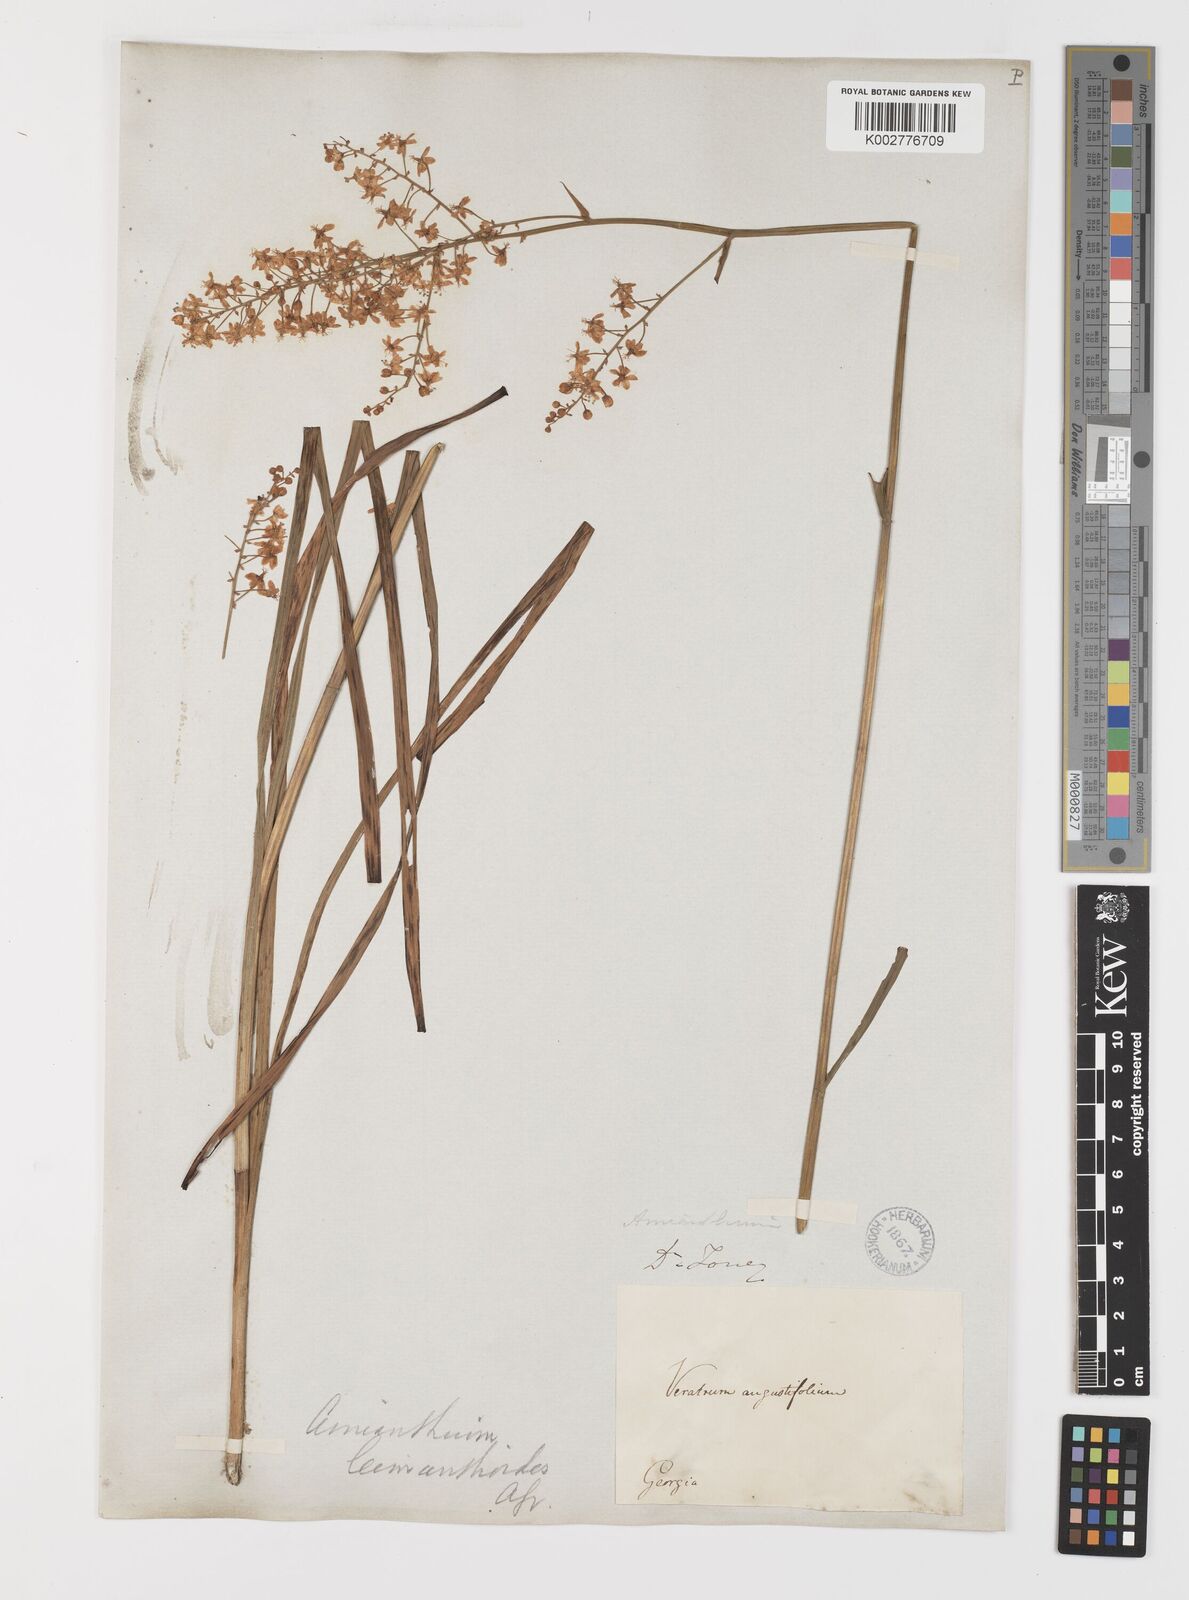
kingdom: Plantae
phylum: Tracheophyta
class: Liliopsida
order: Liliales
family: Melanthiaceae
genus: Stenanthium
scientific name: Stenanthium leimanthoides
